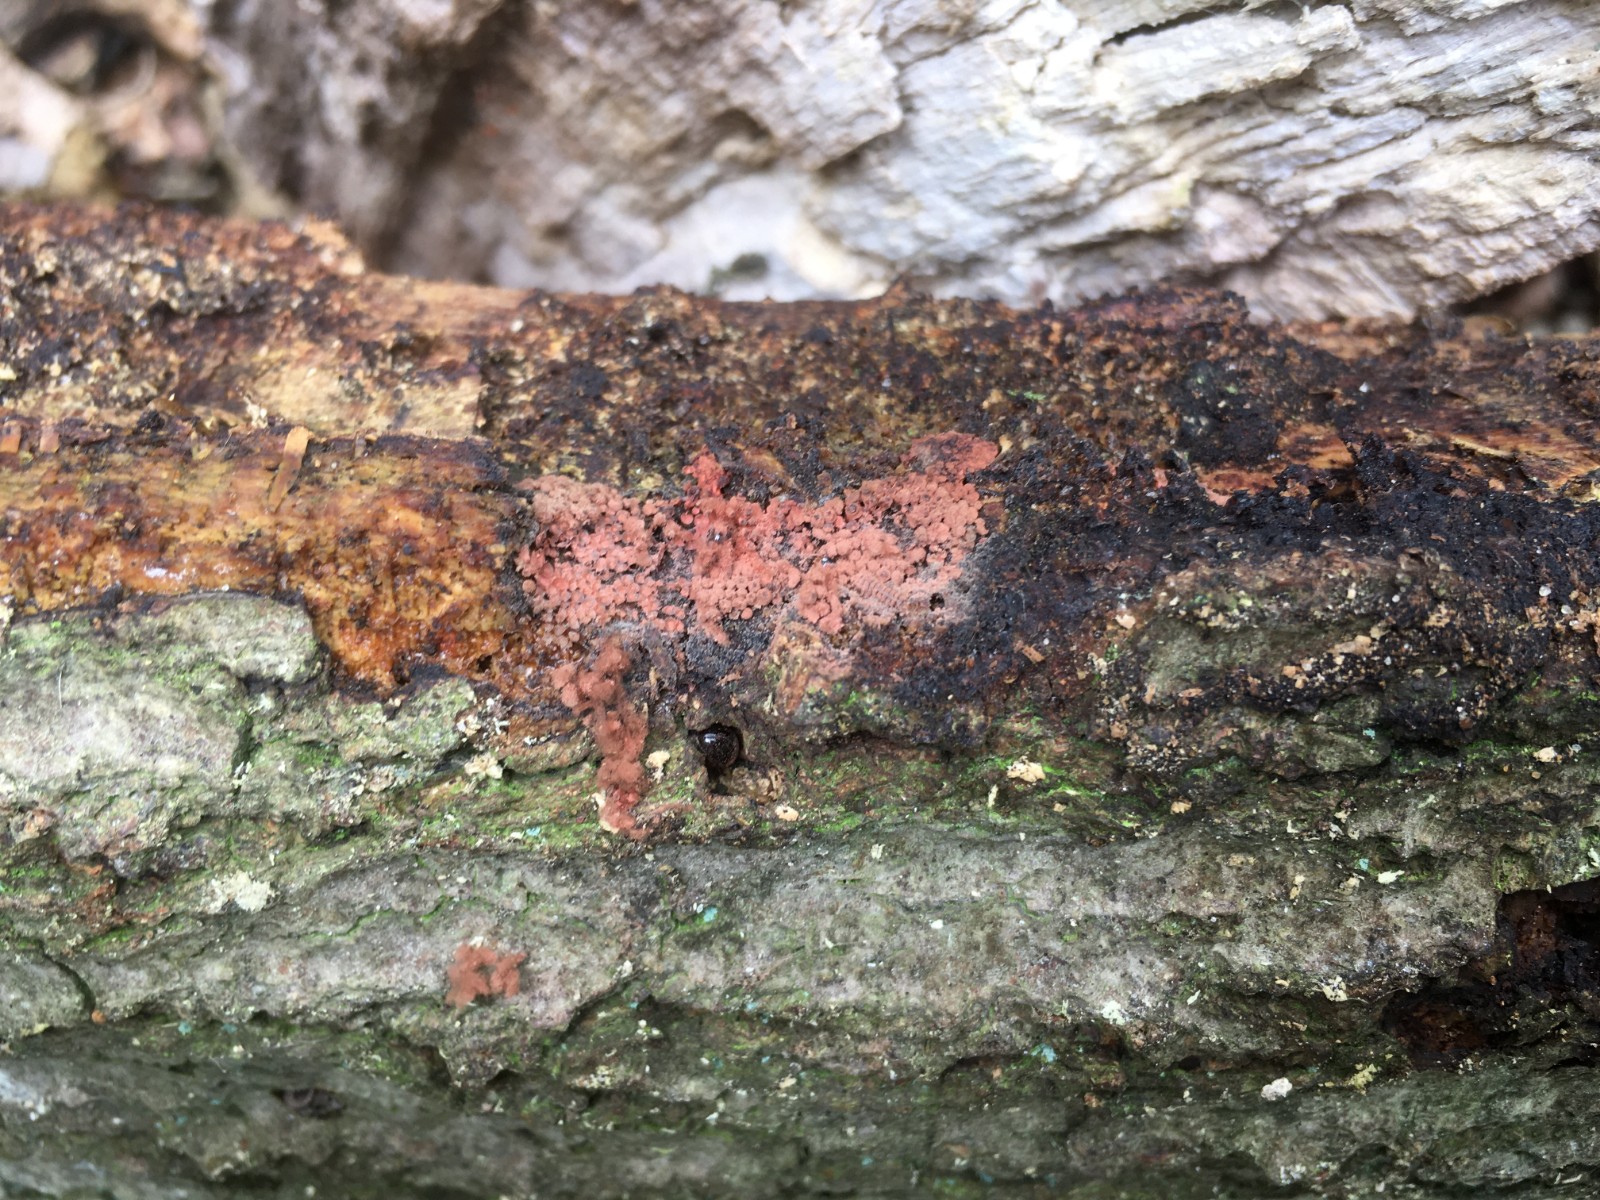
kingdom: Protozoa
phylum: Mycetozoa
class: Myxomycetes
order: Trichiales
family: Arcyriaceae
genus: Arcyria
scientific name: Arcyria incarnata
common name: rosa skålsvøb
